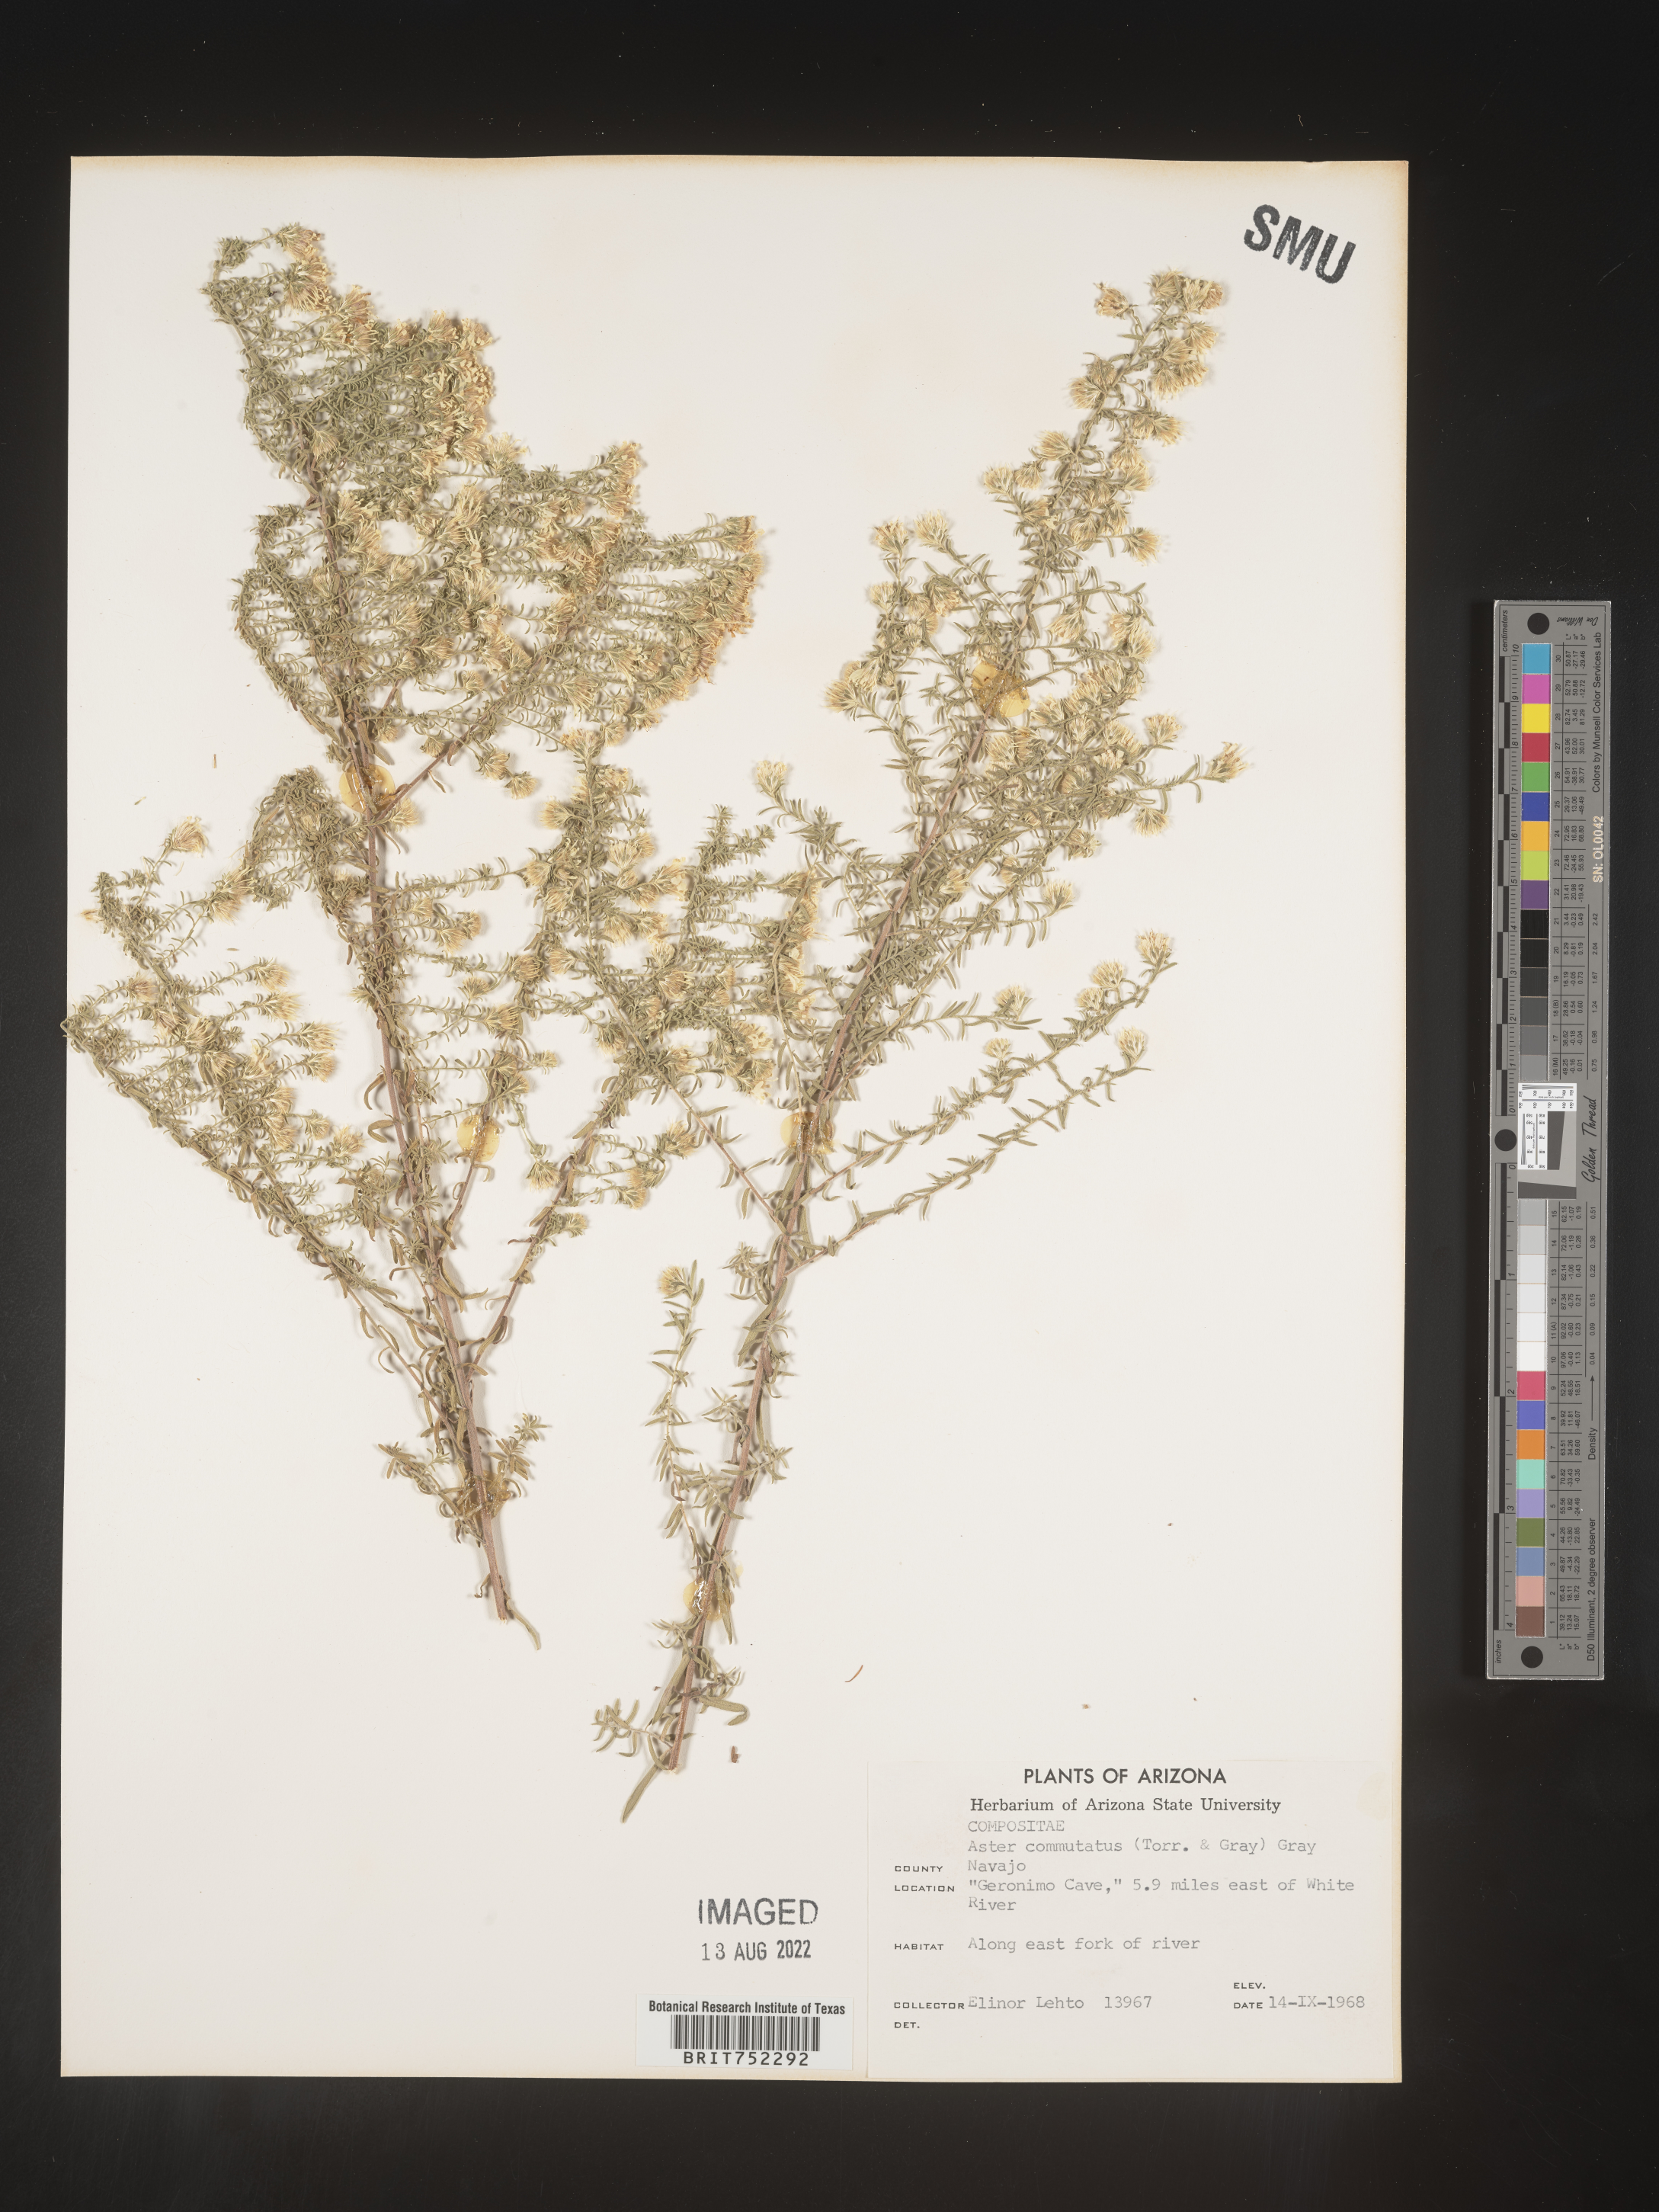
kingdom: Plantae
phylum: Tracheophyta
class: Magnoliopsida
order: Asterales
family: Asteraceae
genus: Symphyotrichum
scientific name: Symphyotrichum falcatum
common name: Creeping white prairie aster
